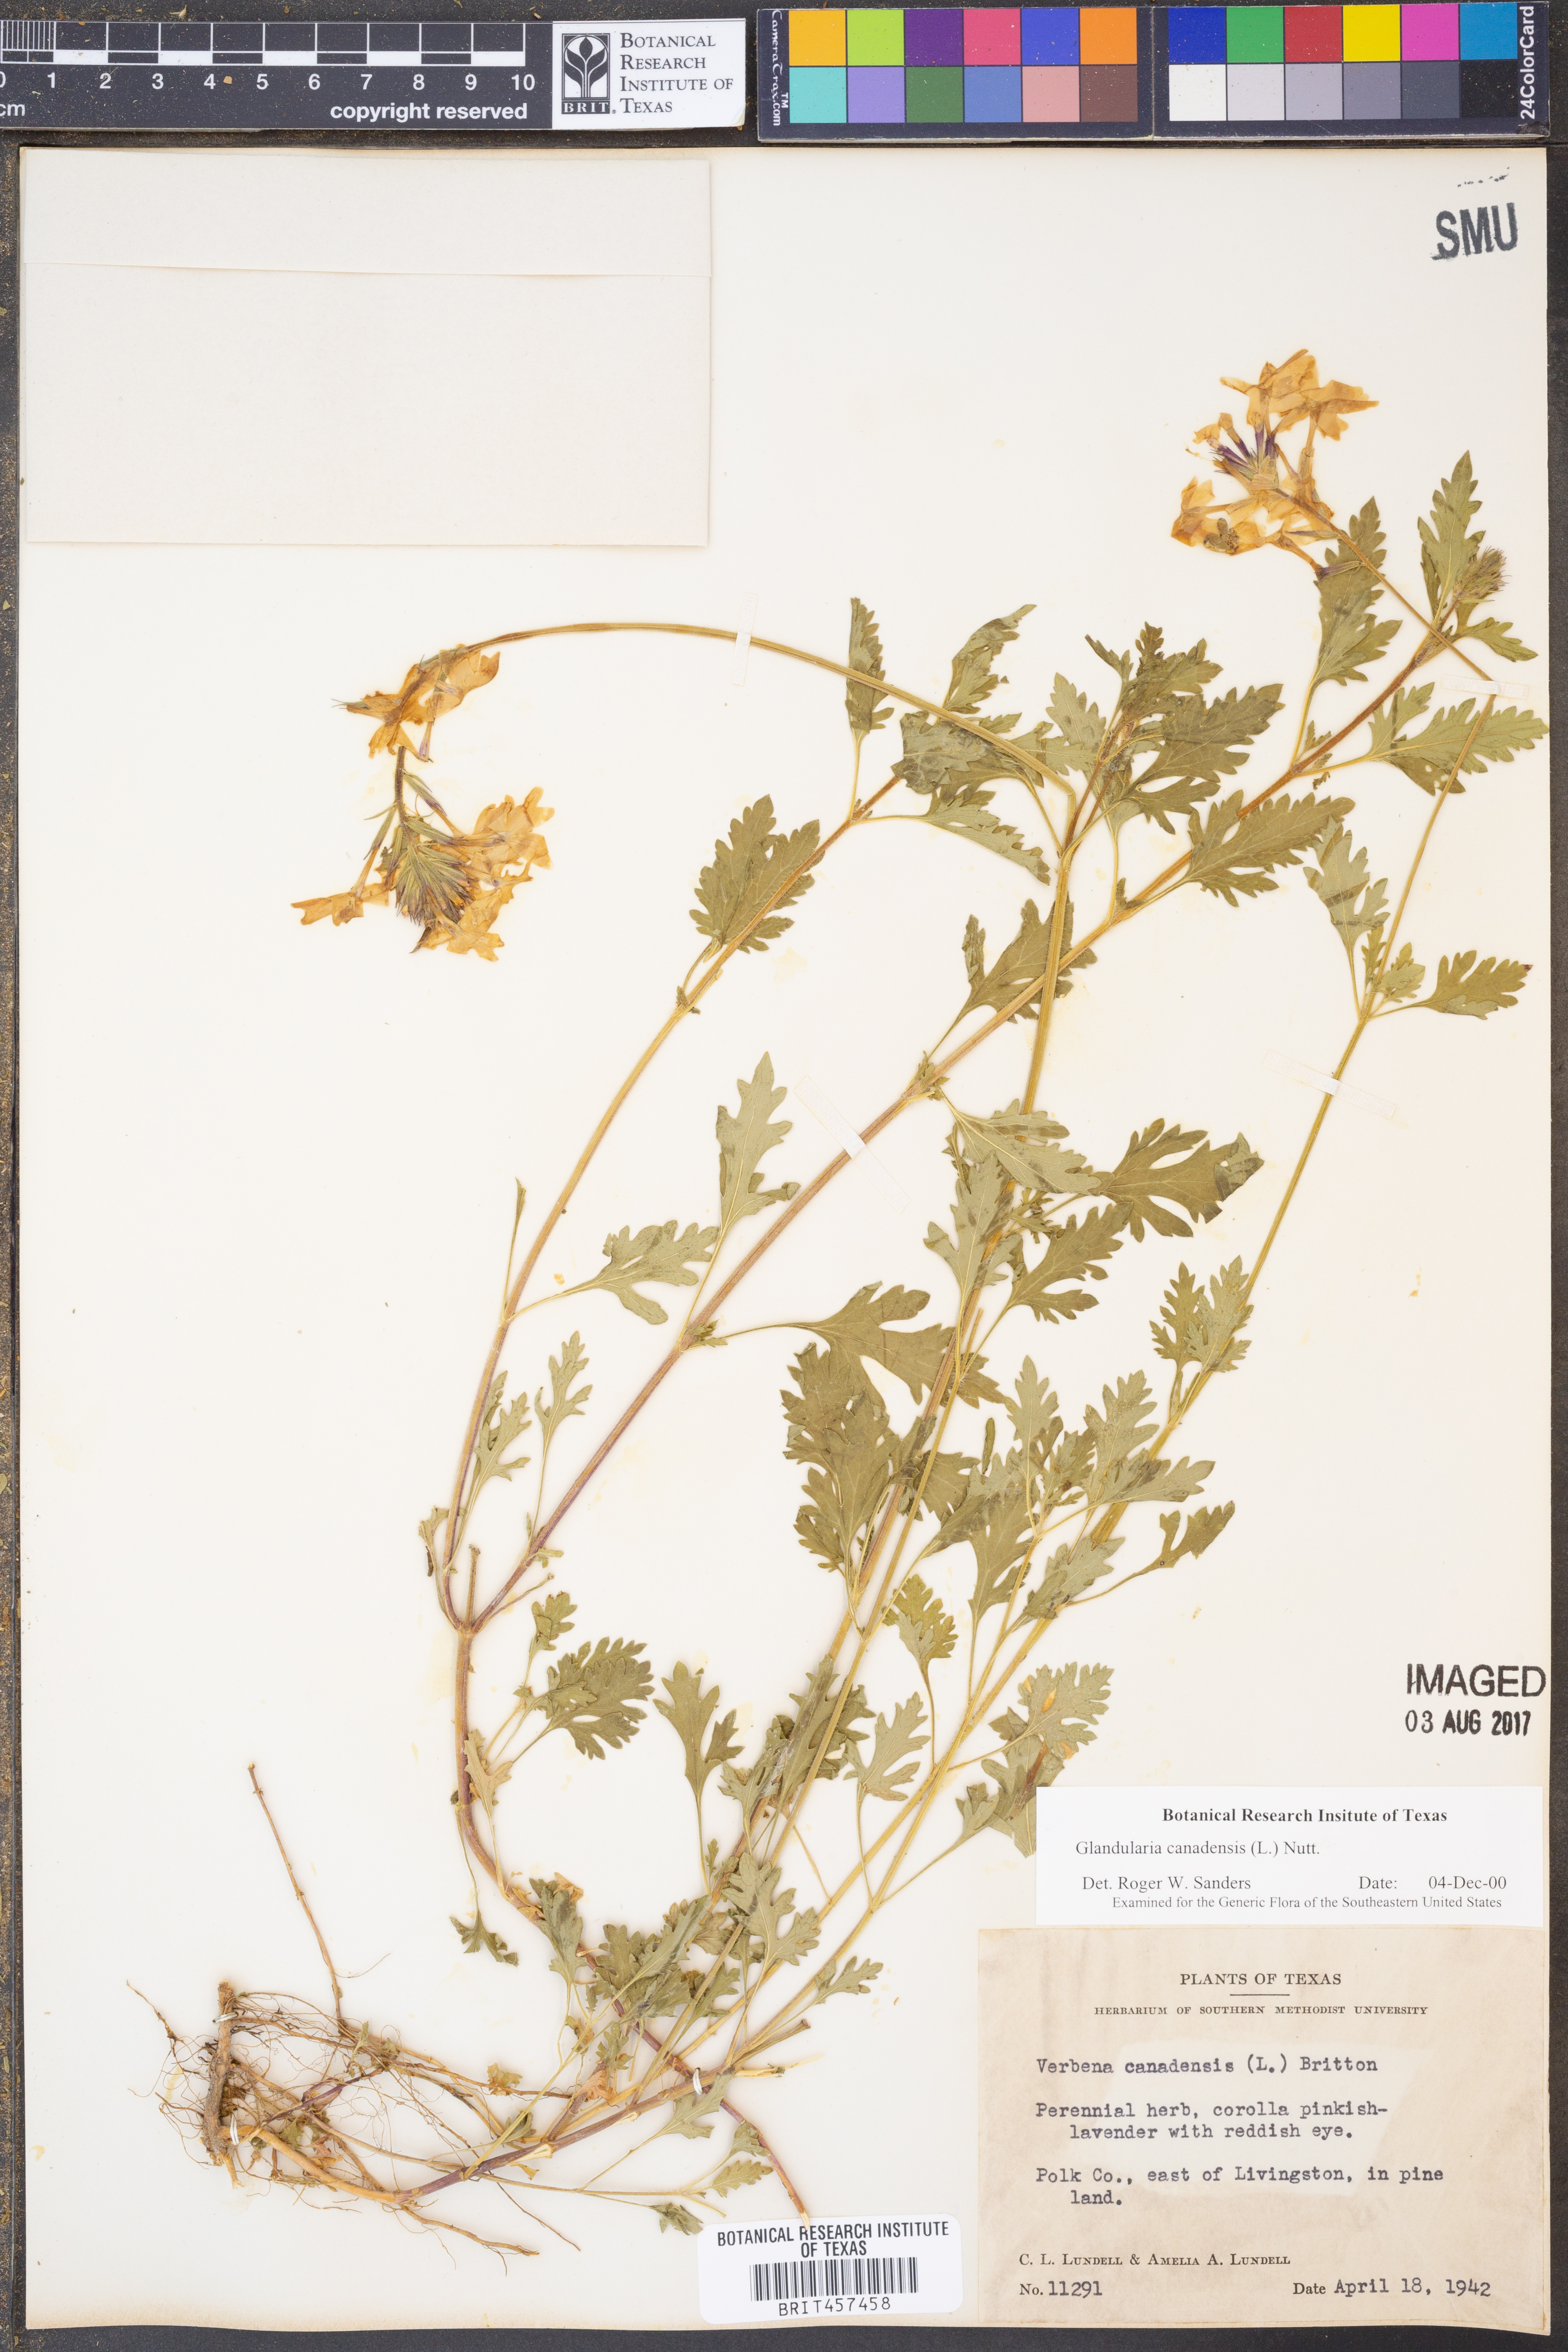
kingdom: Plantae
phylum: Tracheophyta
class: Magnoliopsida
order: Lamiales
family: Verbenaceae
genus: Verbena
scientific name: Verbena canadensis
